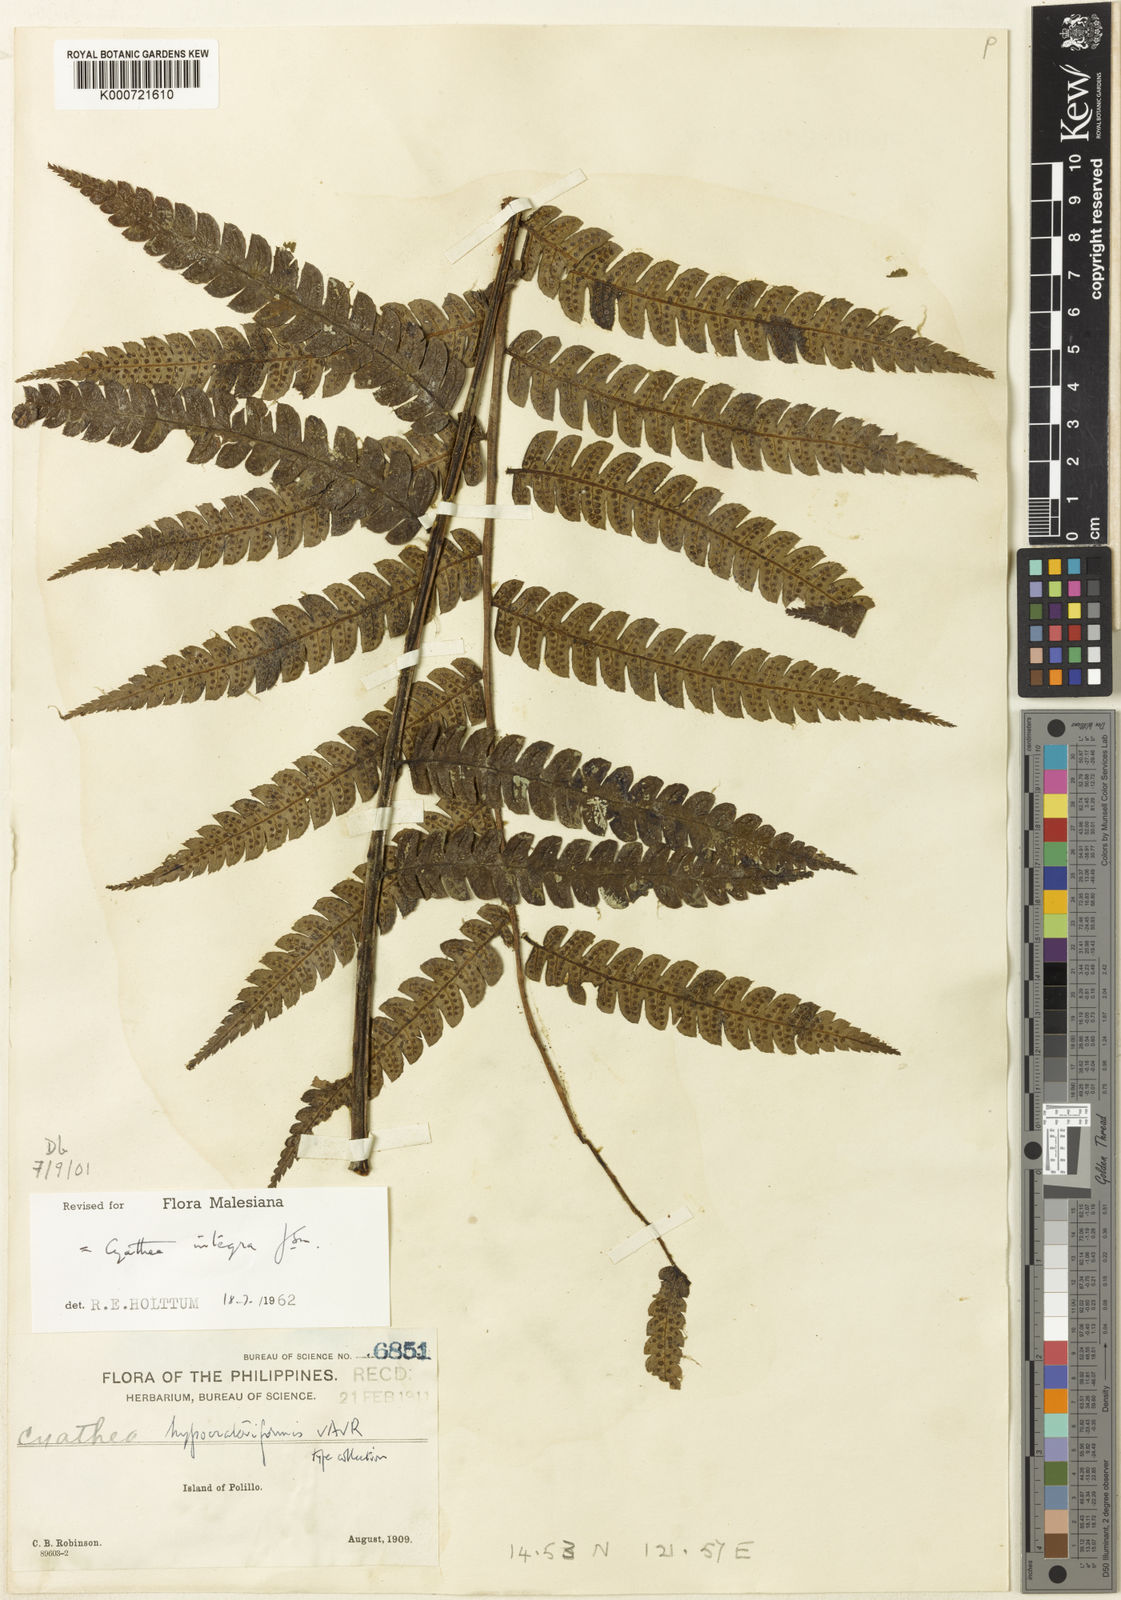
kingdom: Plantae
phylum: Tracheophyta
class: Polypodiopsida
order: Cyatheales
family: Cyatheaceae
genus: Sphaeropteris
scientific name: Sphaeropteris integra
